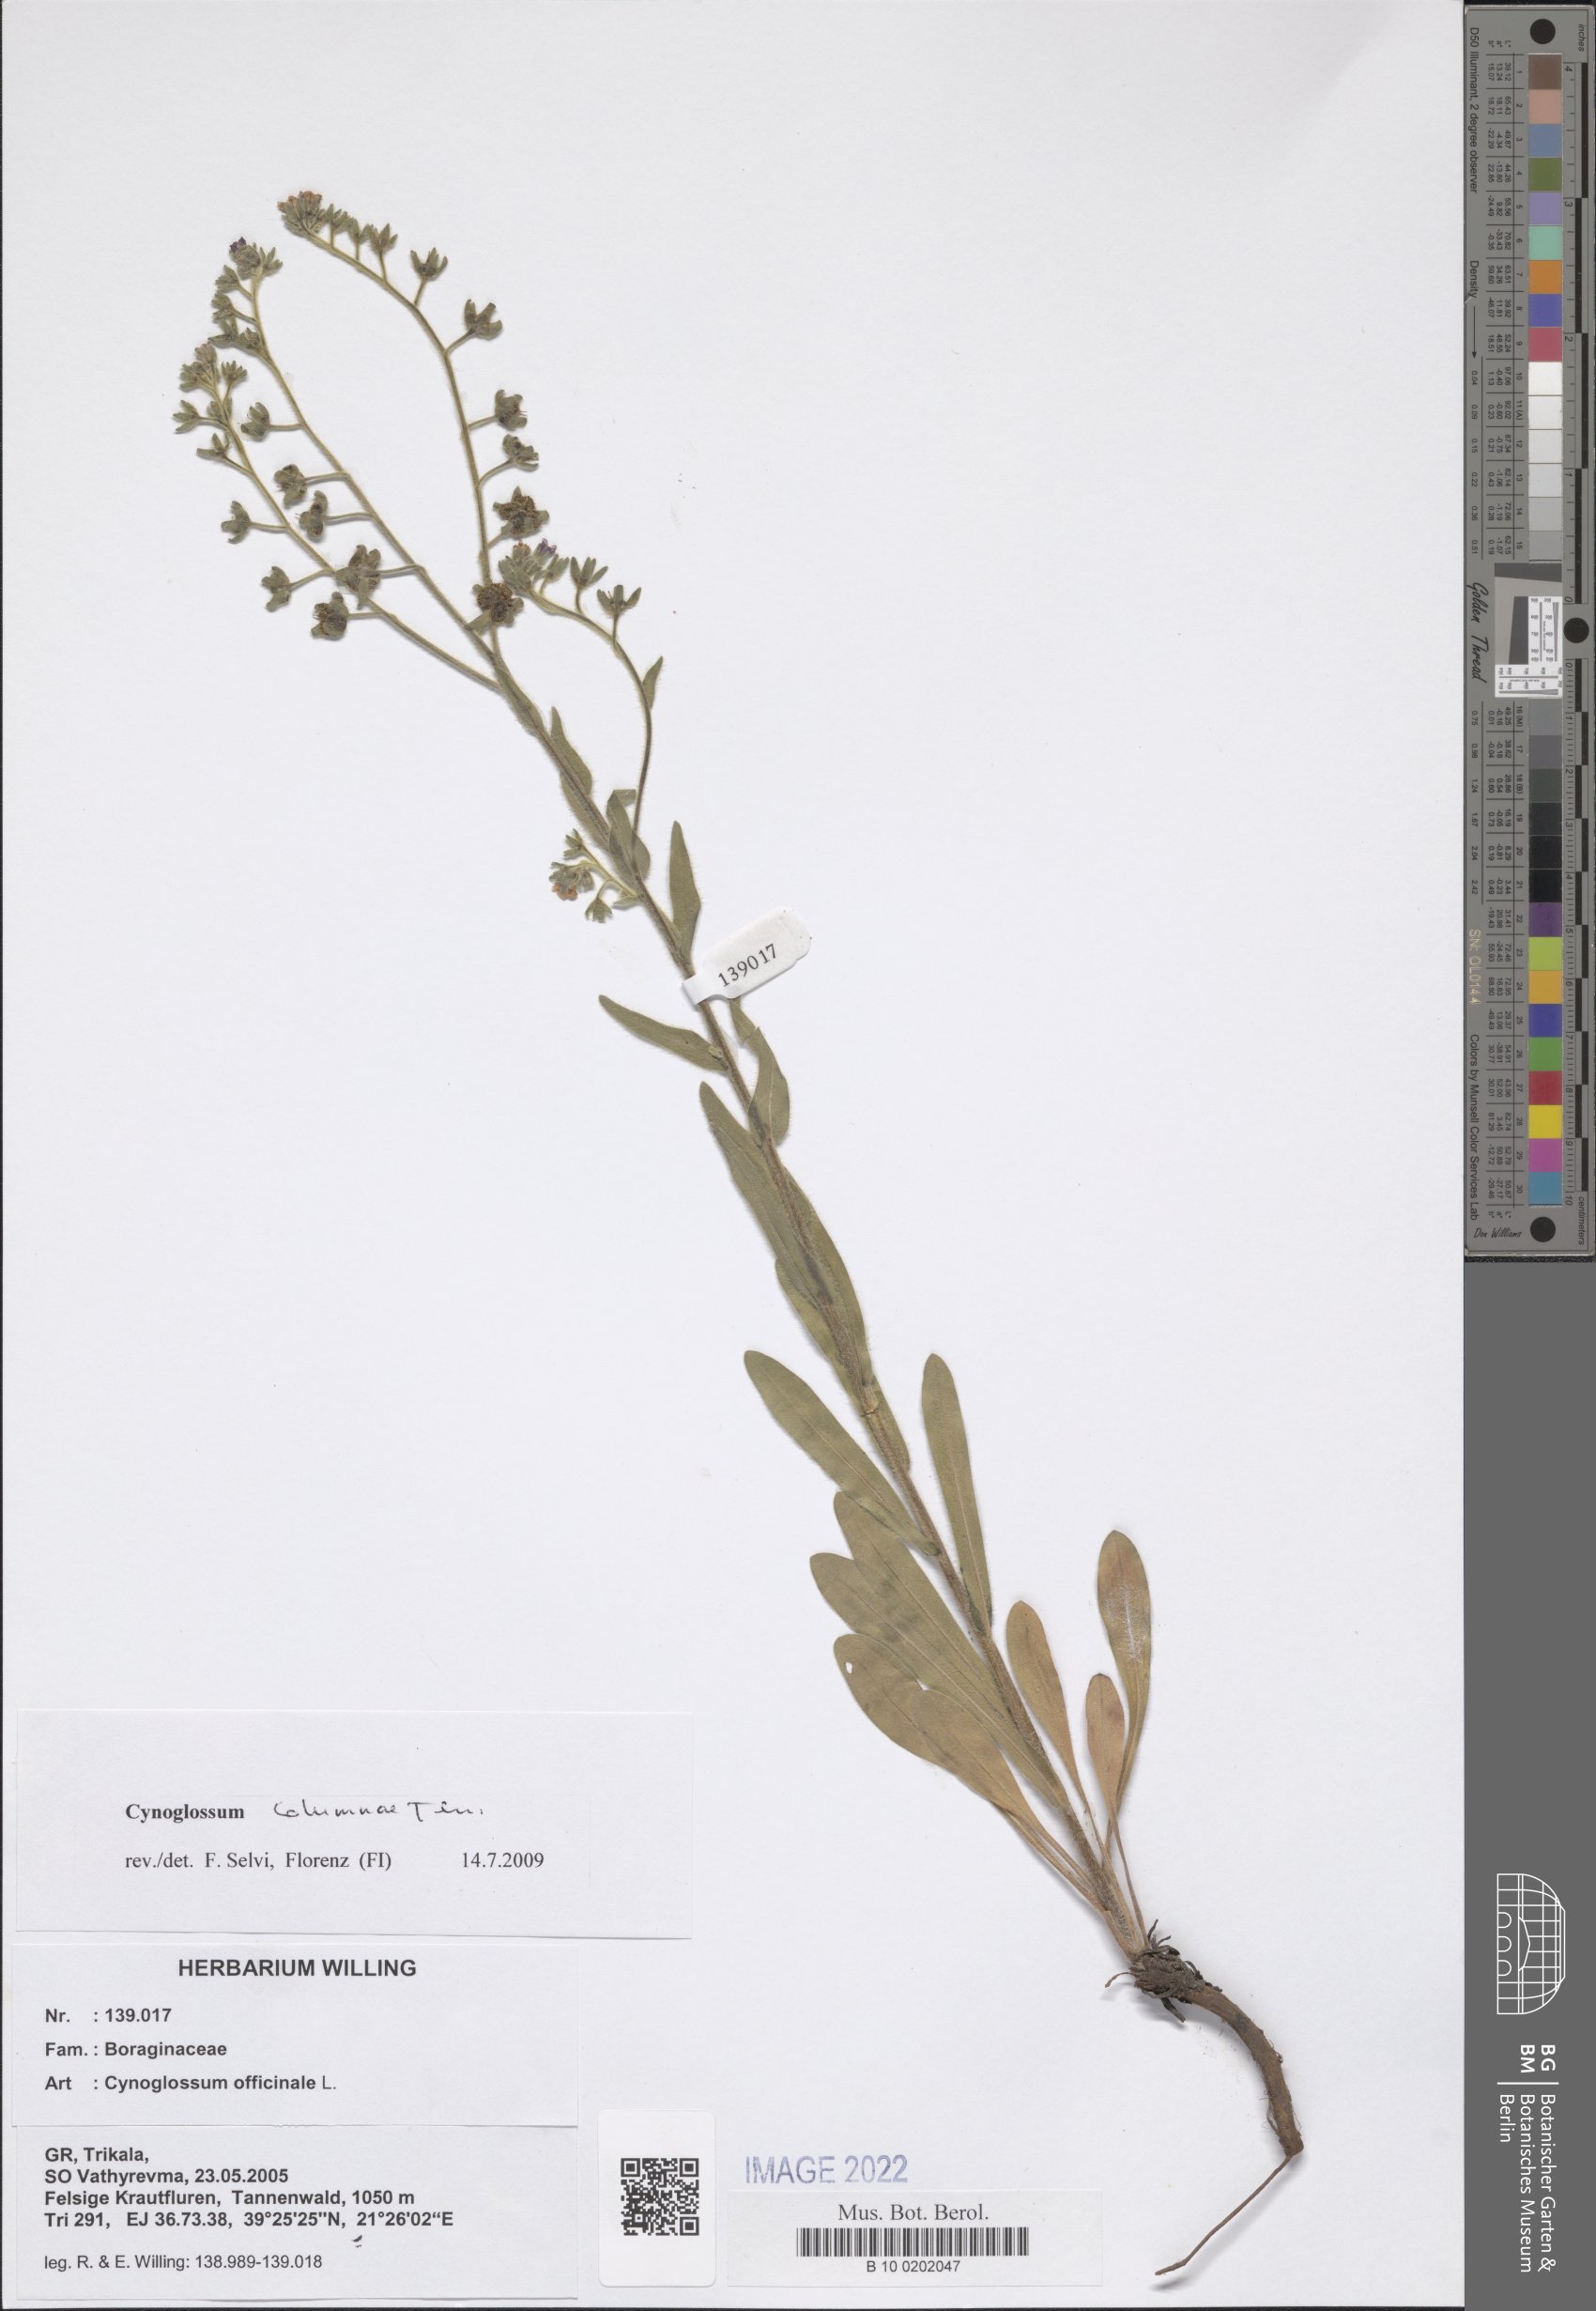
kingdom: Plantae
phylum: Tracheophyta
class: Magnoliopsida
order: Boraginales
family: Boraginaceae
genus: Rindera
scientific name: Rindera columnae
